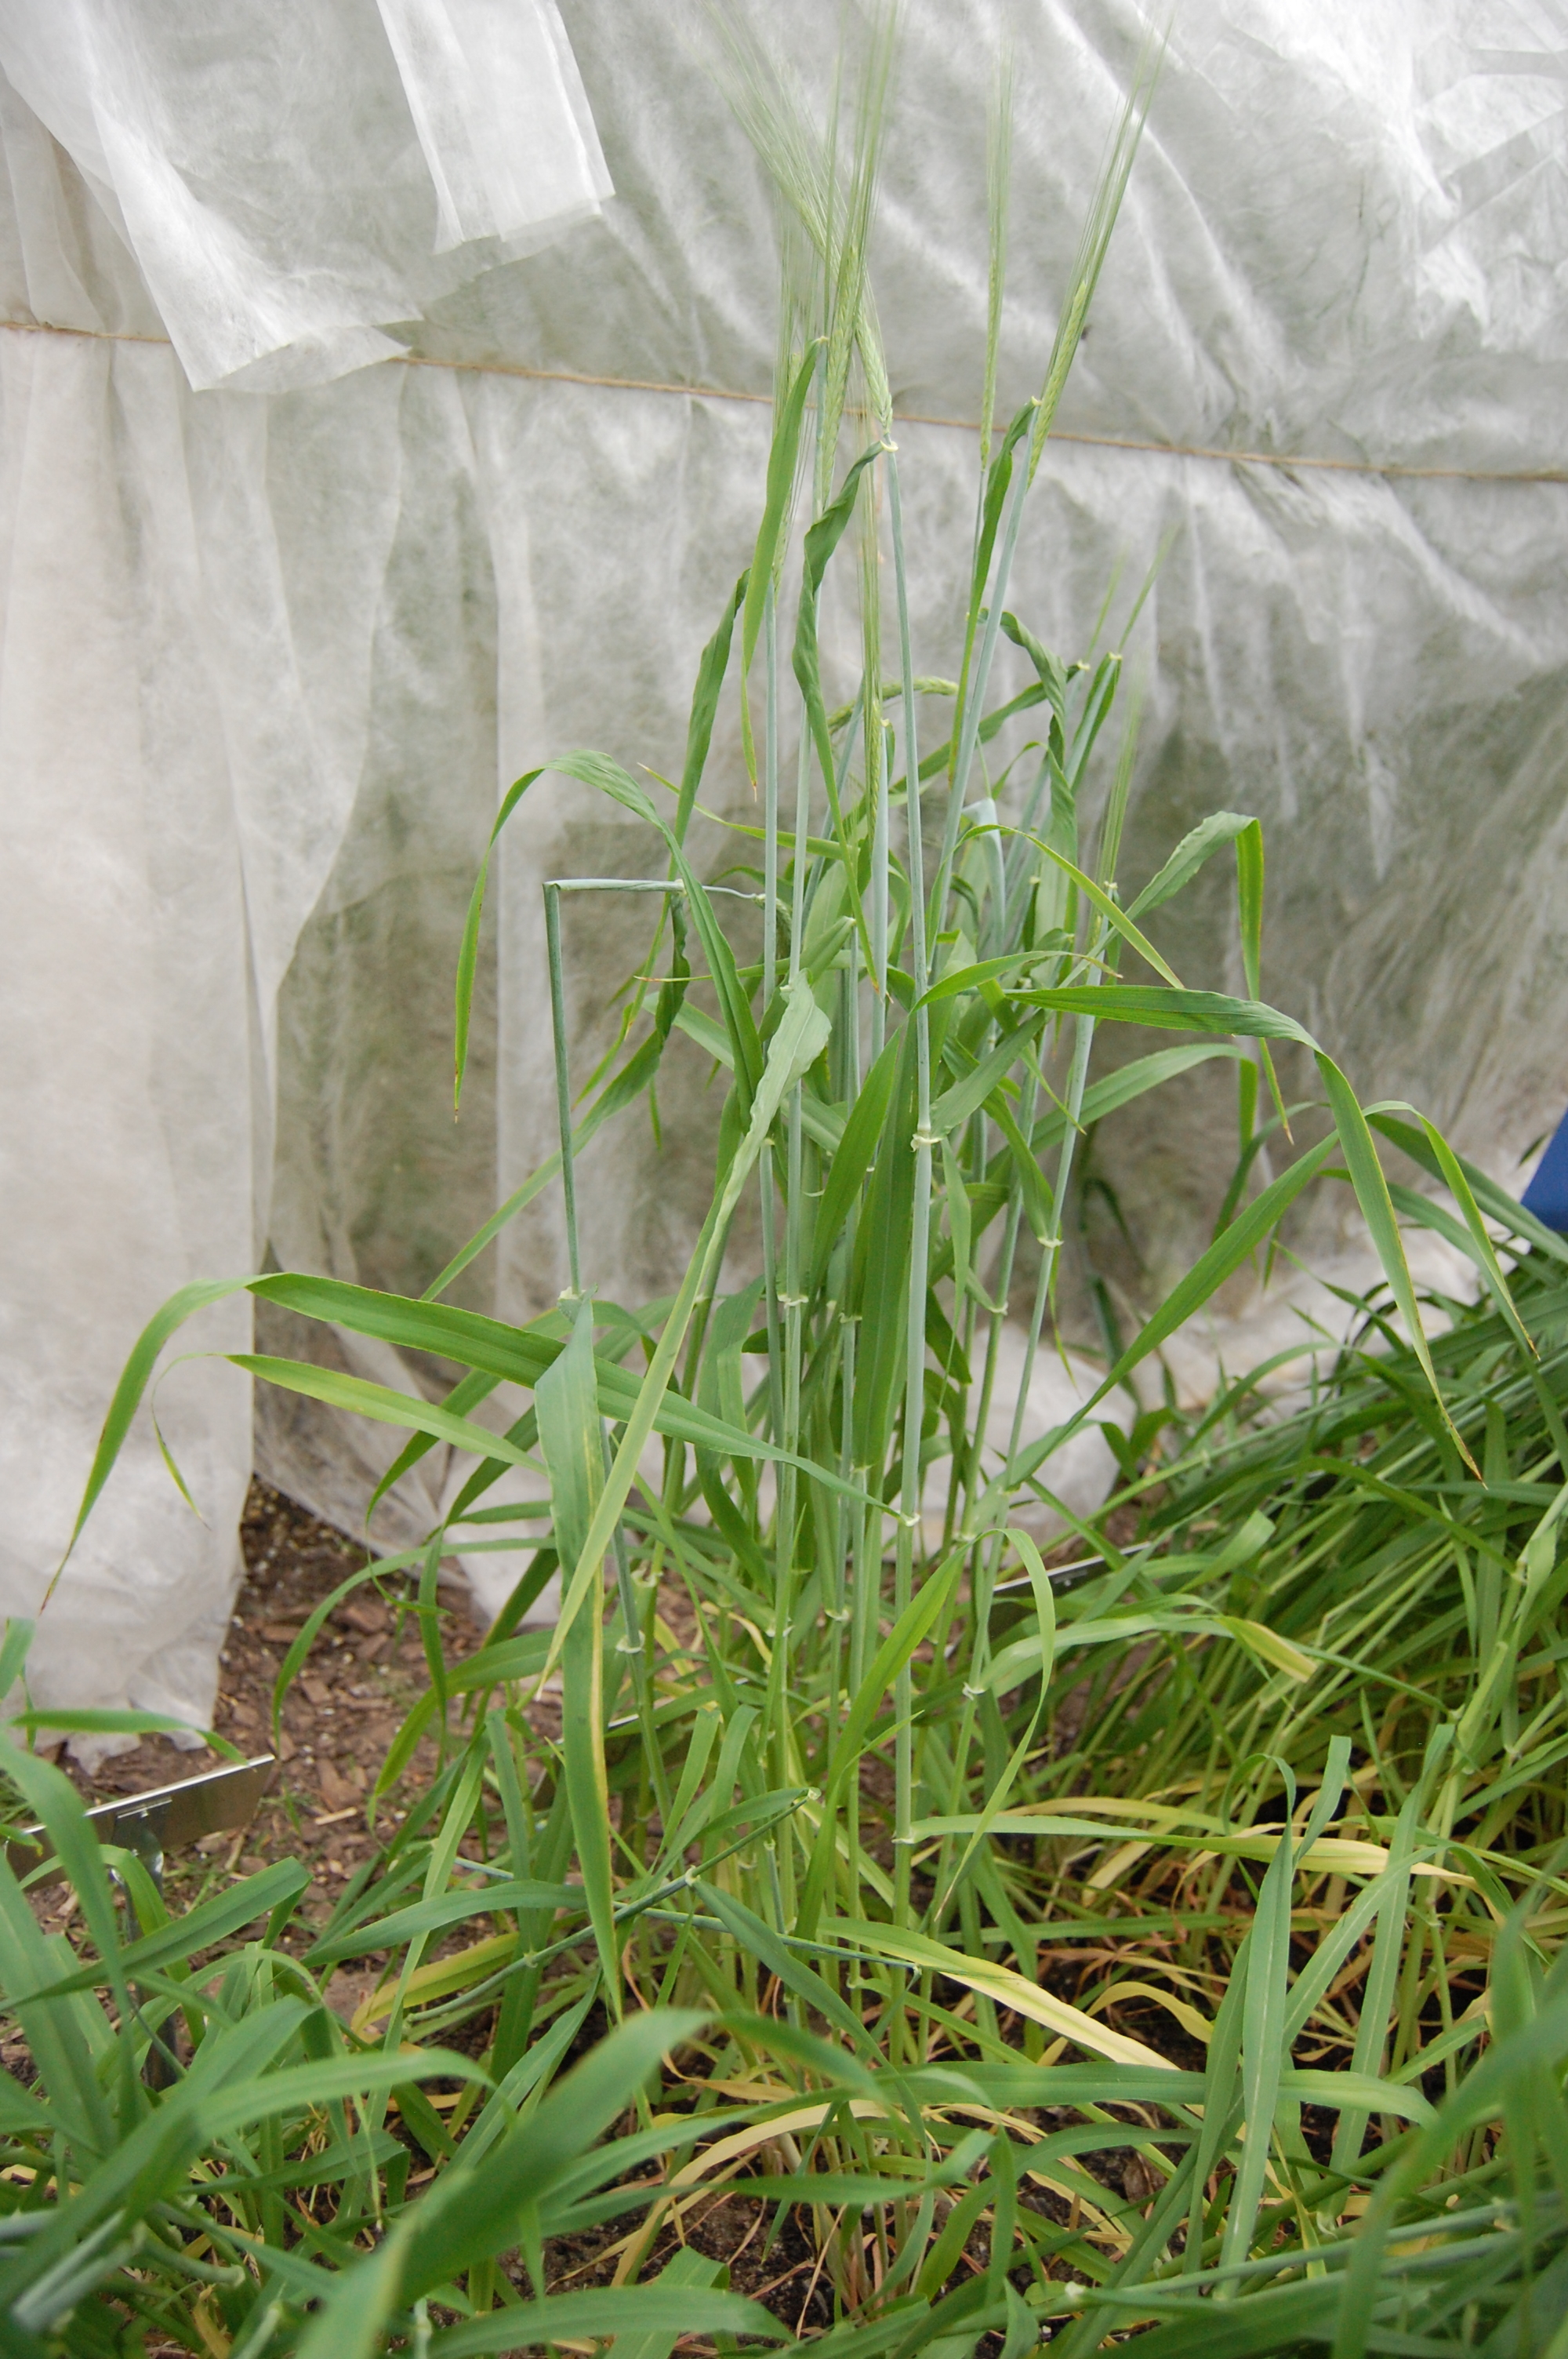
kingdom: Plantae
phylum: Tracheophyta
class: Liliopsida
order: Poales
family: Poaceae
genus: Hordeum
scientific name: Hordeum vulgare
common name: Common barley
